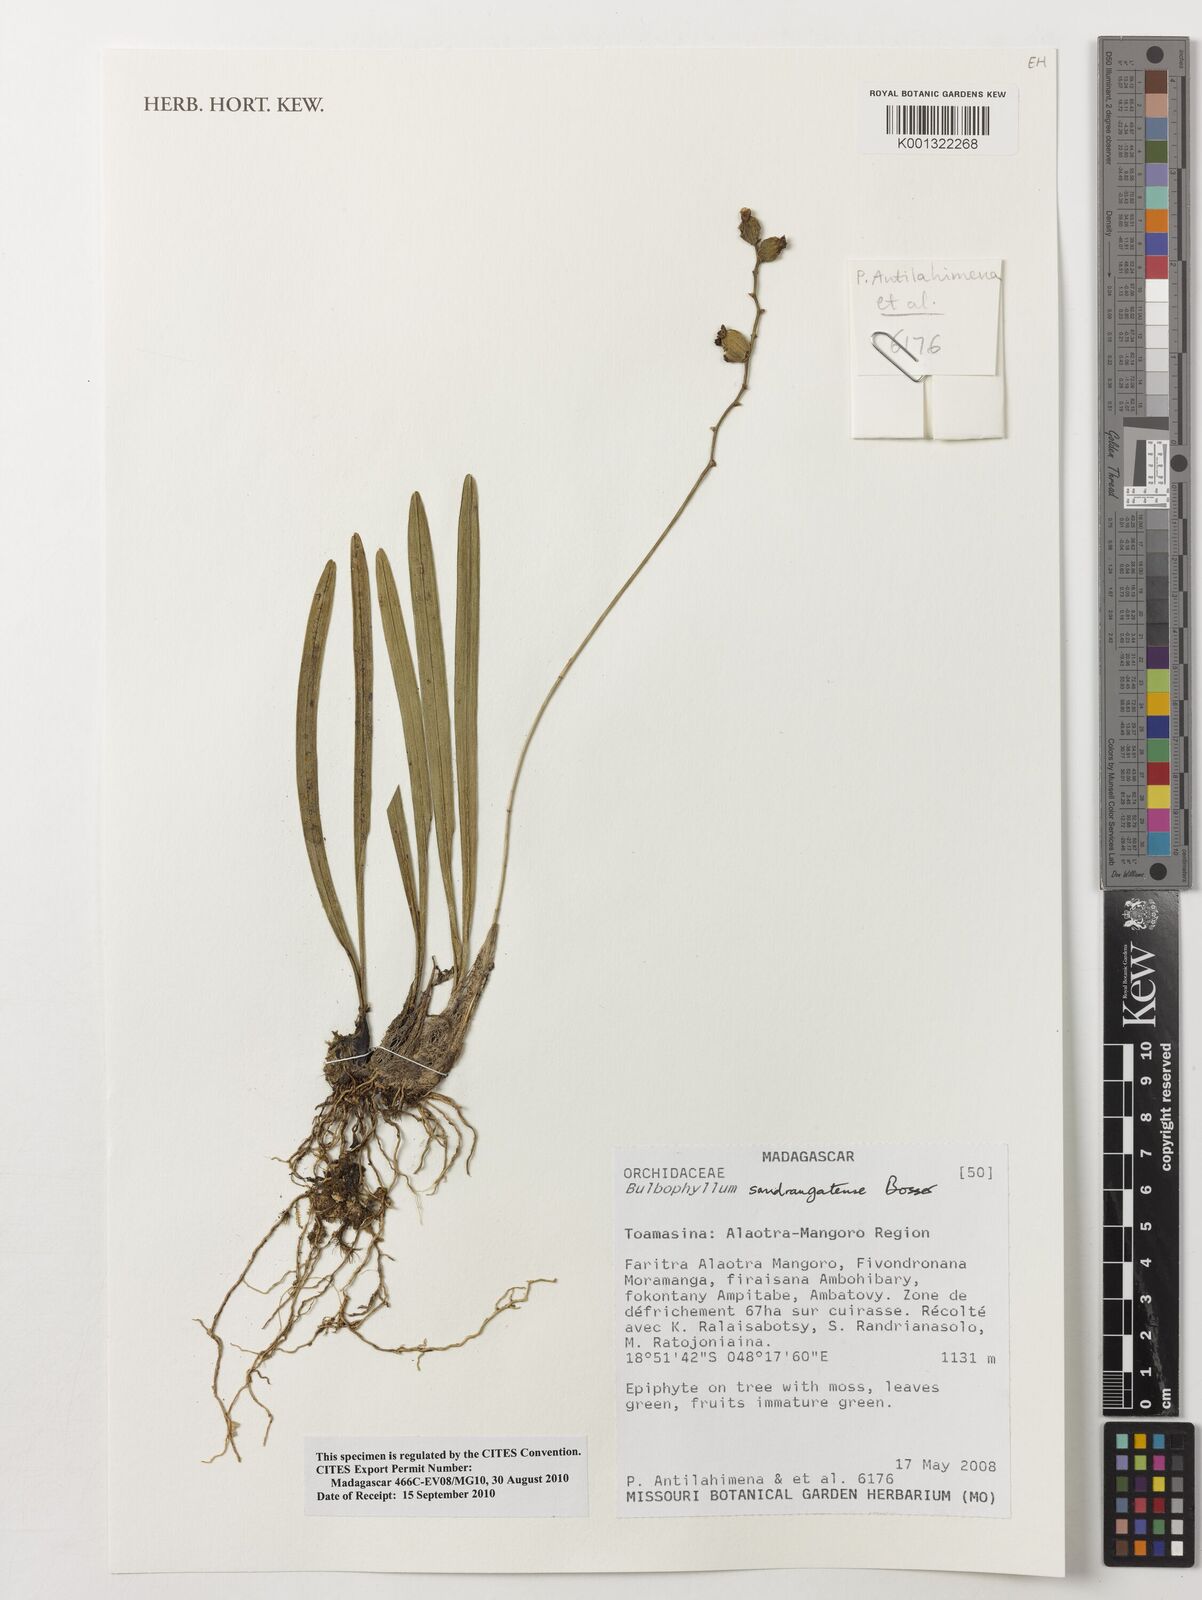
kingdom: Plantae
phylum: Tracheophyta
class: Liliopsida
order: Asparagales
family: Orchidaceae
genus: Bulbophyllum
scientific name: Bulbophyllum sandrangatense
